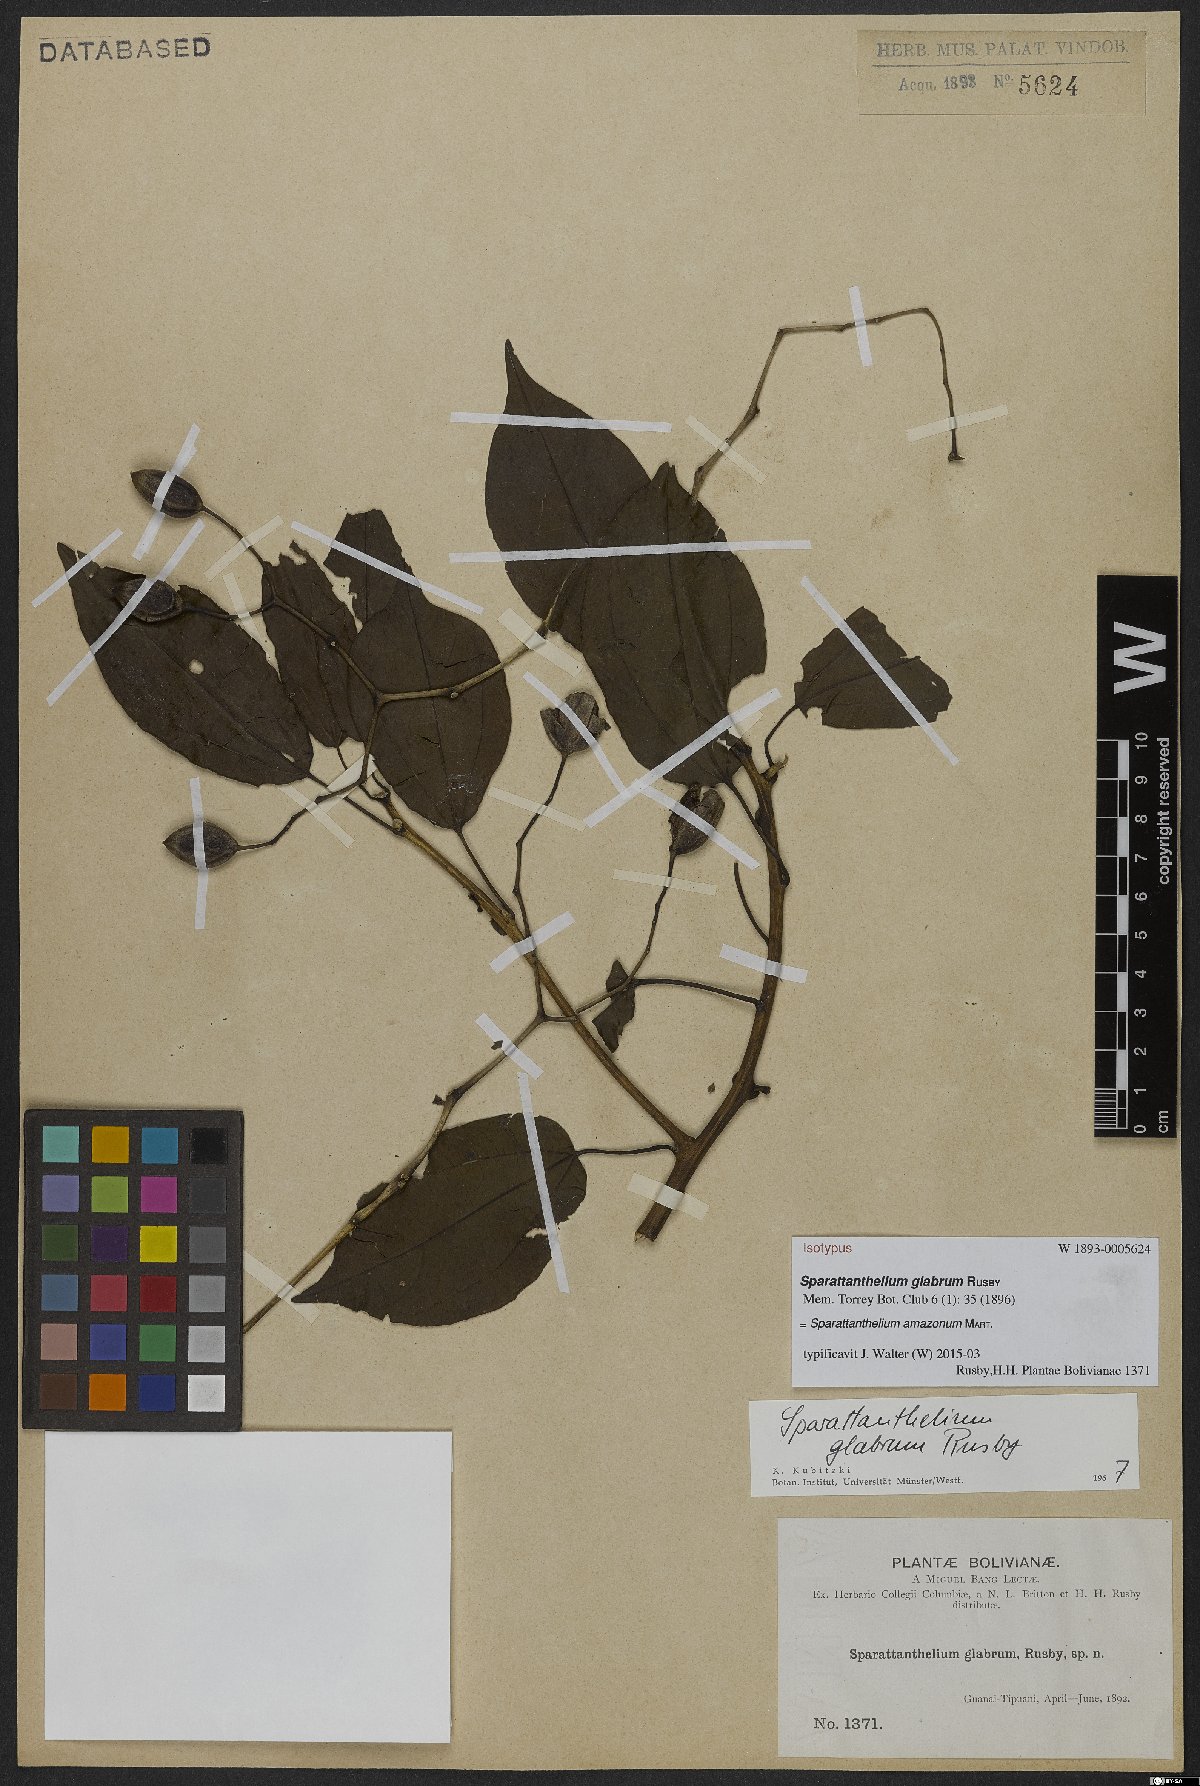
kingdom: Plantae
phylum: Tracheophyta
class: Magnoliopsida
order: Laurales
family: Hernandiaceae
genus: Sparattanthelium
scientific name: Sparattanthelium amazonum
